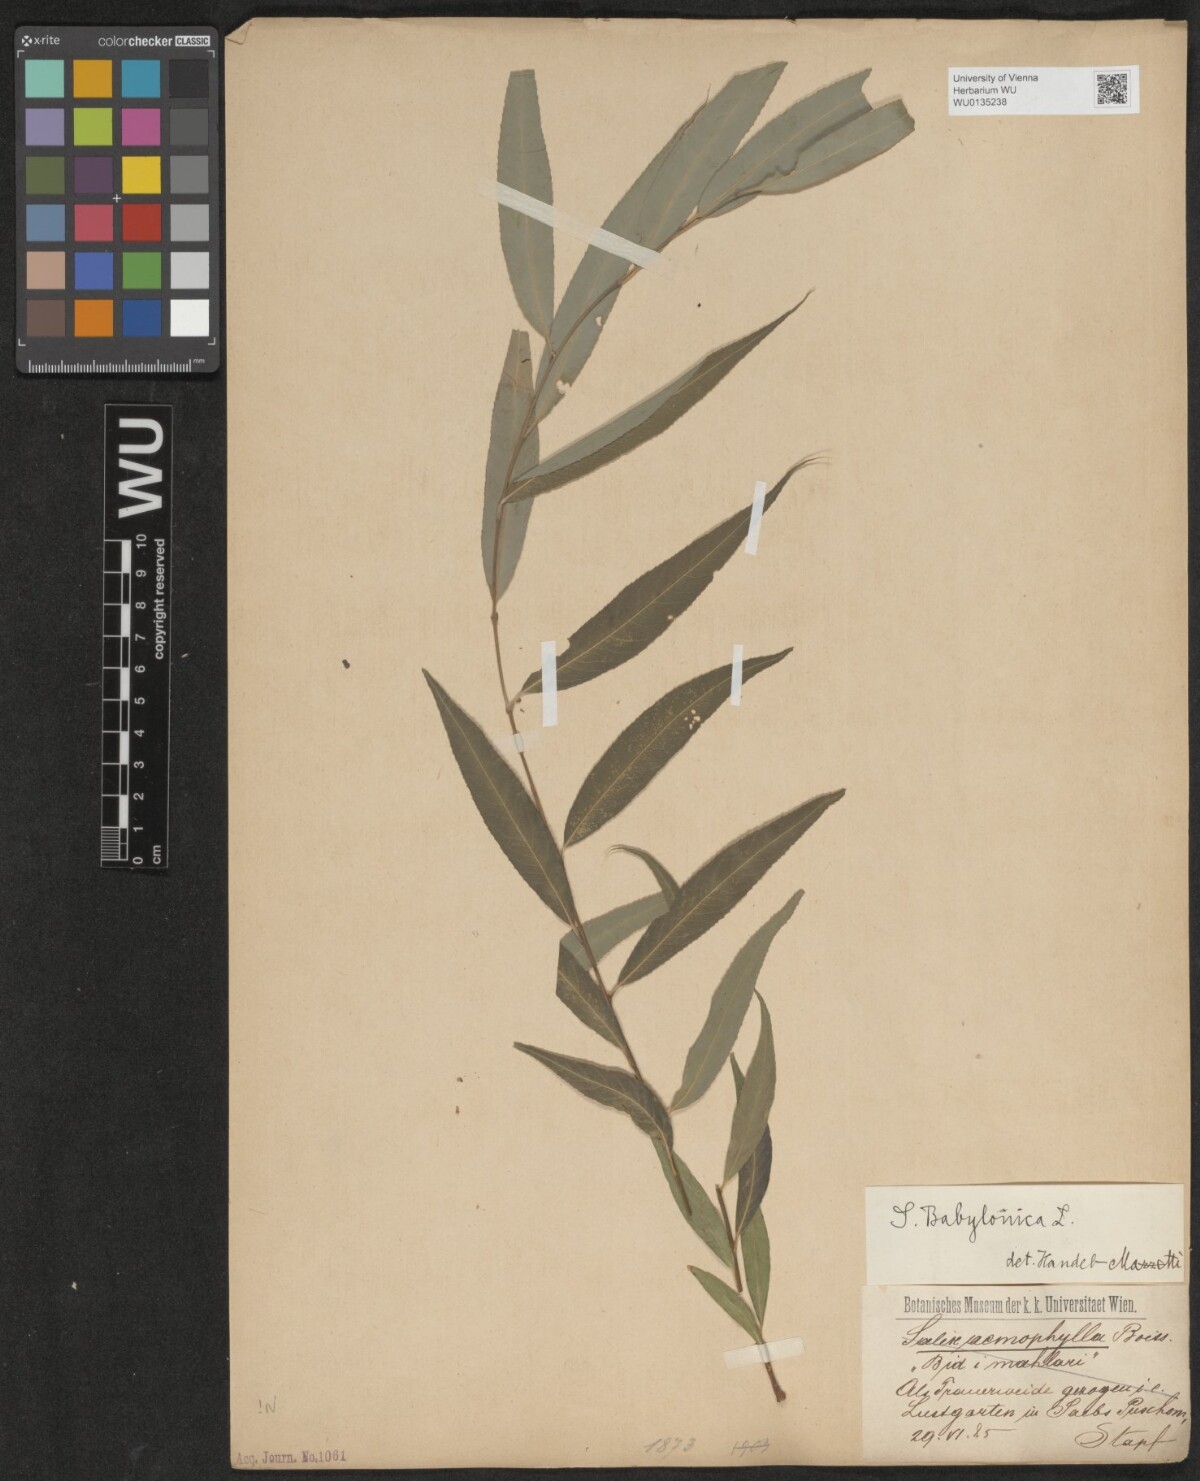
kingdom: Plantae
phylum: Tracheophyta
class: Magnoliopsida
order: Malpighiales
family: Salicaceae
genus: Salix
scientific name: Salix babylonica
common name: Weeping willow
